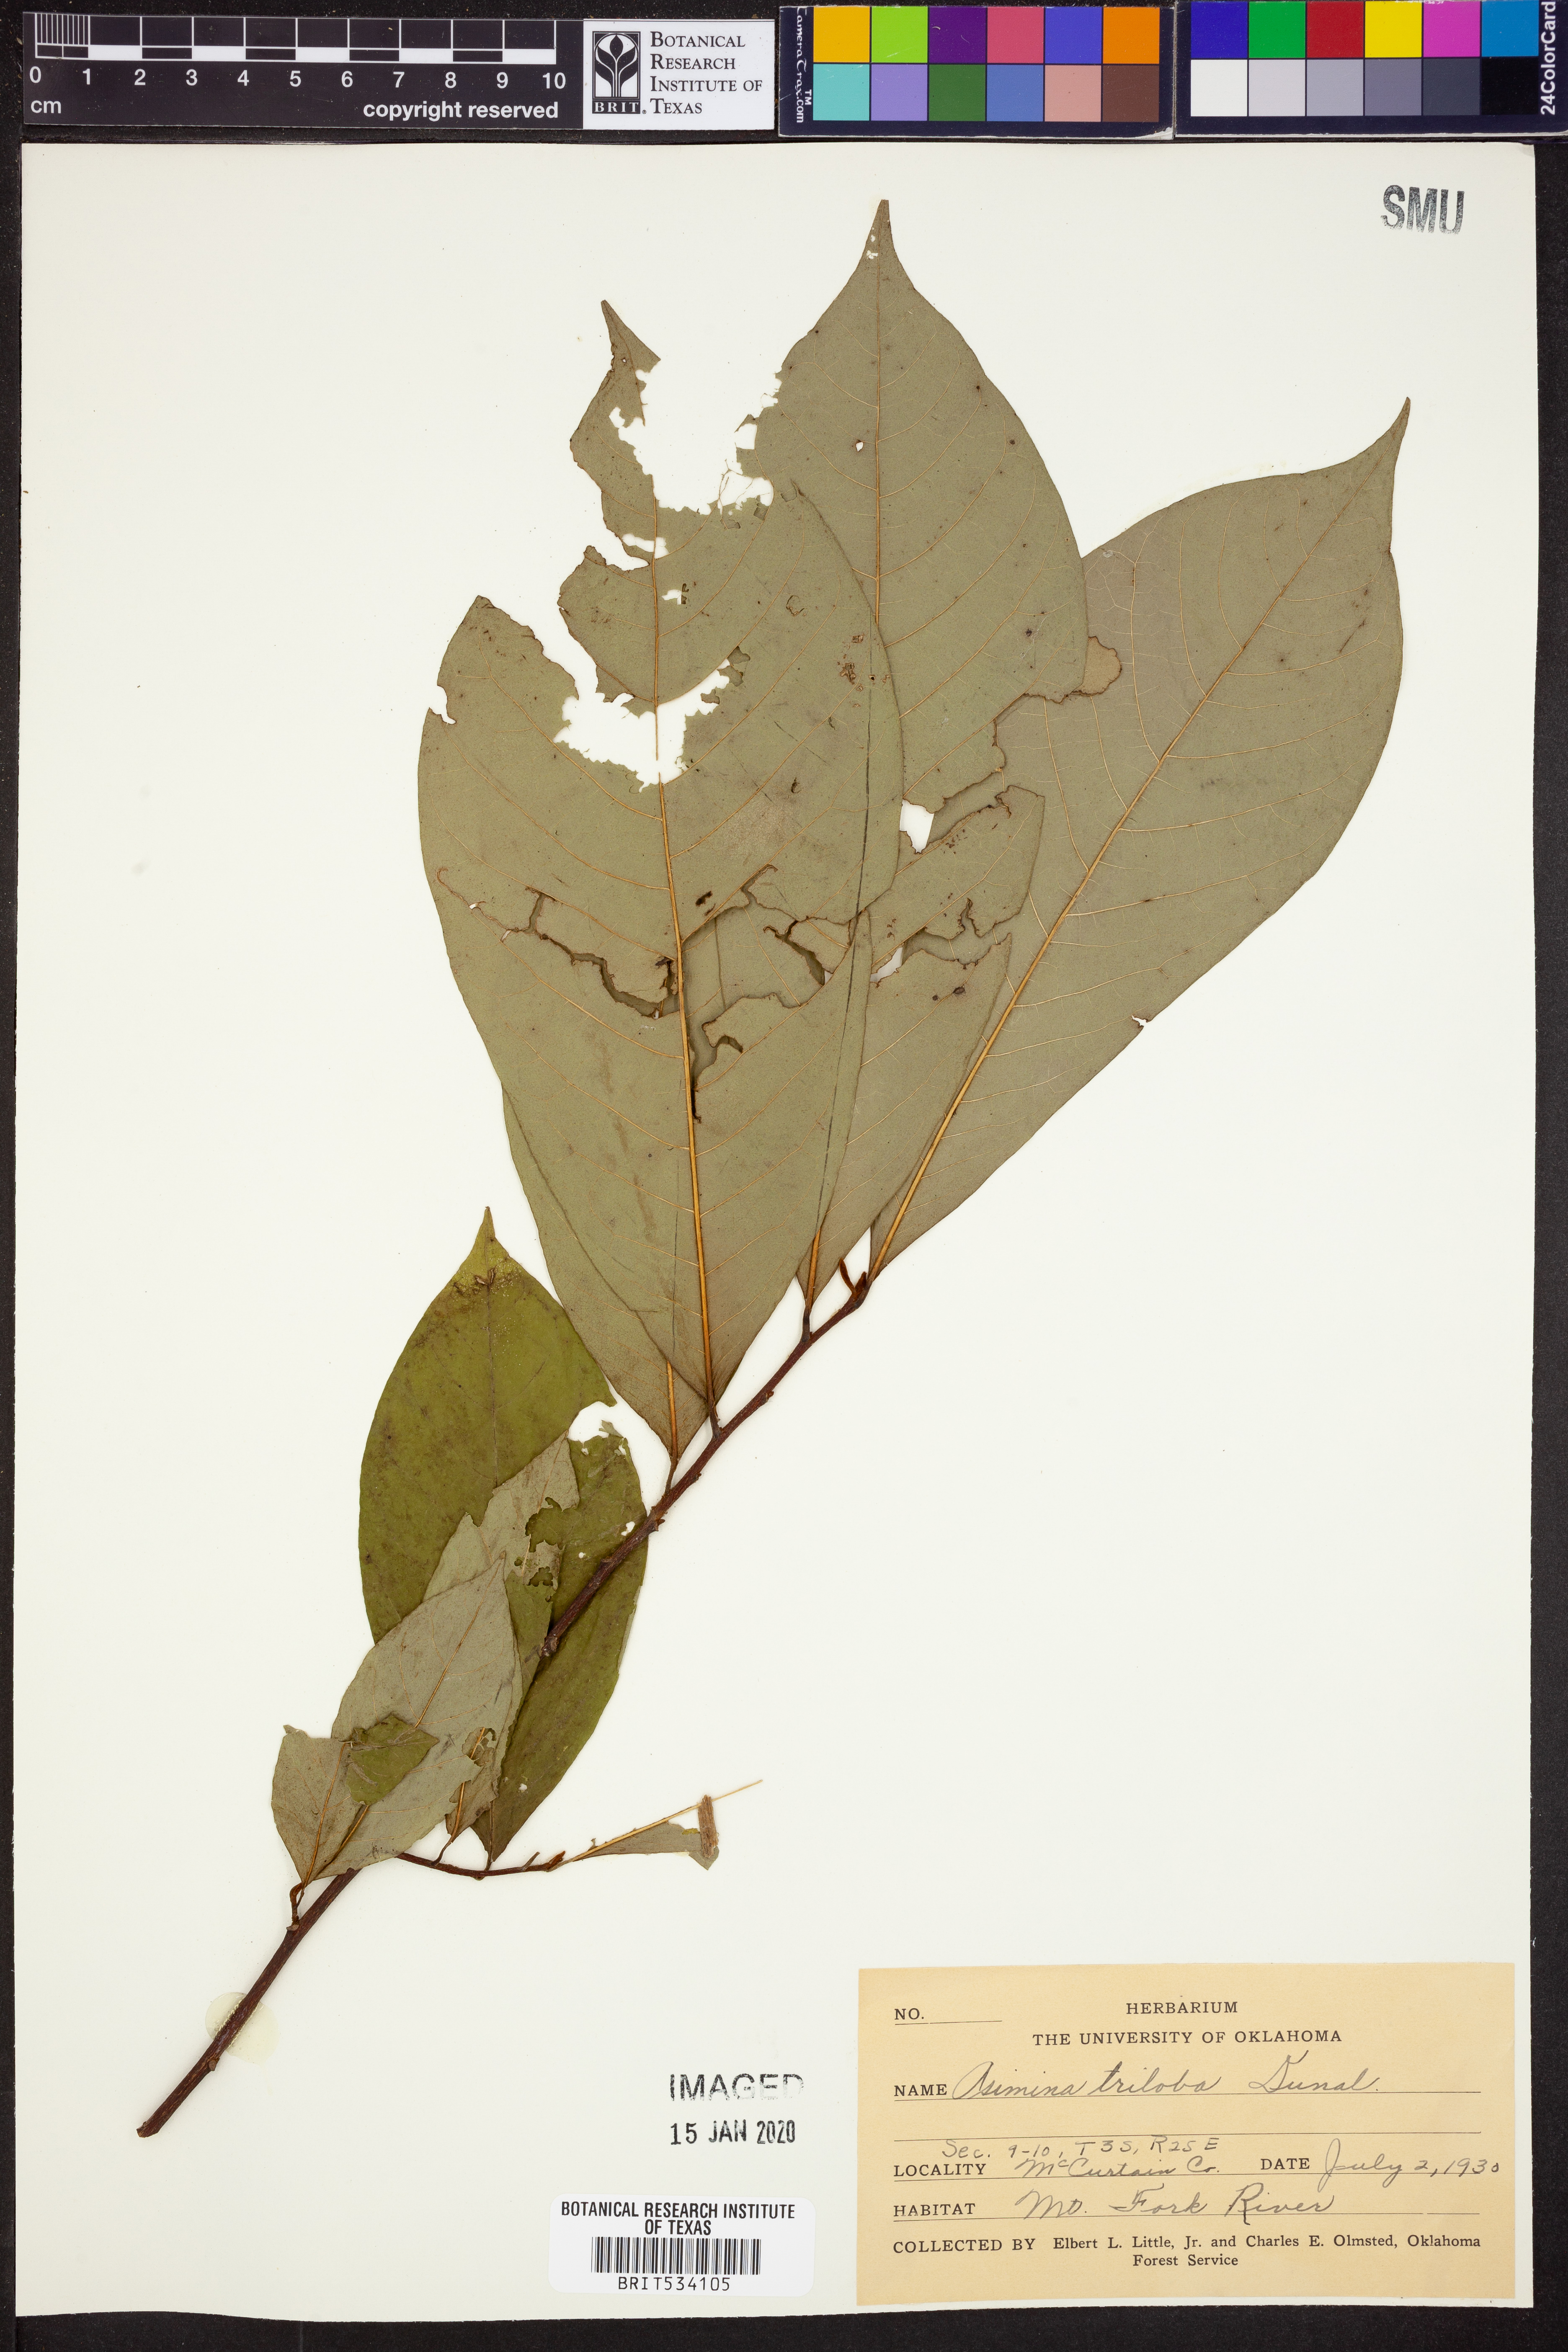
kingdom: Plantae
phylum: Tracheophyta
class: Magnoliopsida
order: Magnoliales
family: Annonaceae
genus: Asimina
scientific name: Asimina triloba
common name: Dog-banana
